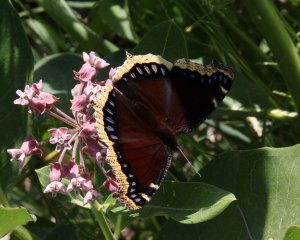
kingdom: Animalia
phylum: Arthropoda
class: Insecta
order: Lepidoptera
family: Nymphalidae
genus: Nymphalis
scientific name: Nymphalis antiopa
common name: Mourning Cloak
